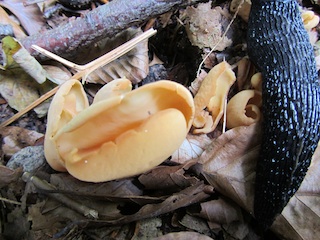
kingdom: Fungi
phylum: Ascomycota
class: Pezizomycetes
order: Pezizales
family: Otideaceae
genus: Otidea
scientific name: Otidea onotica
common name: æsel-ørebæger
